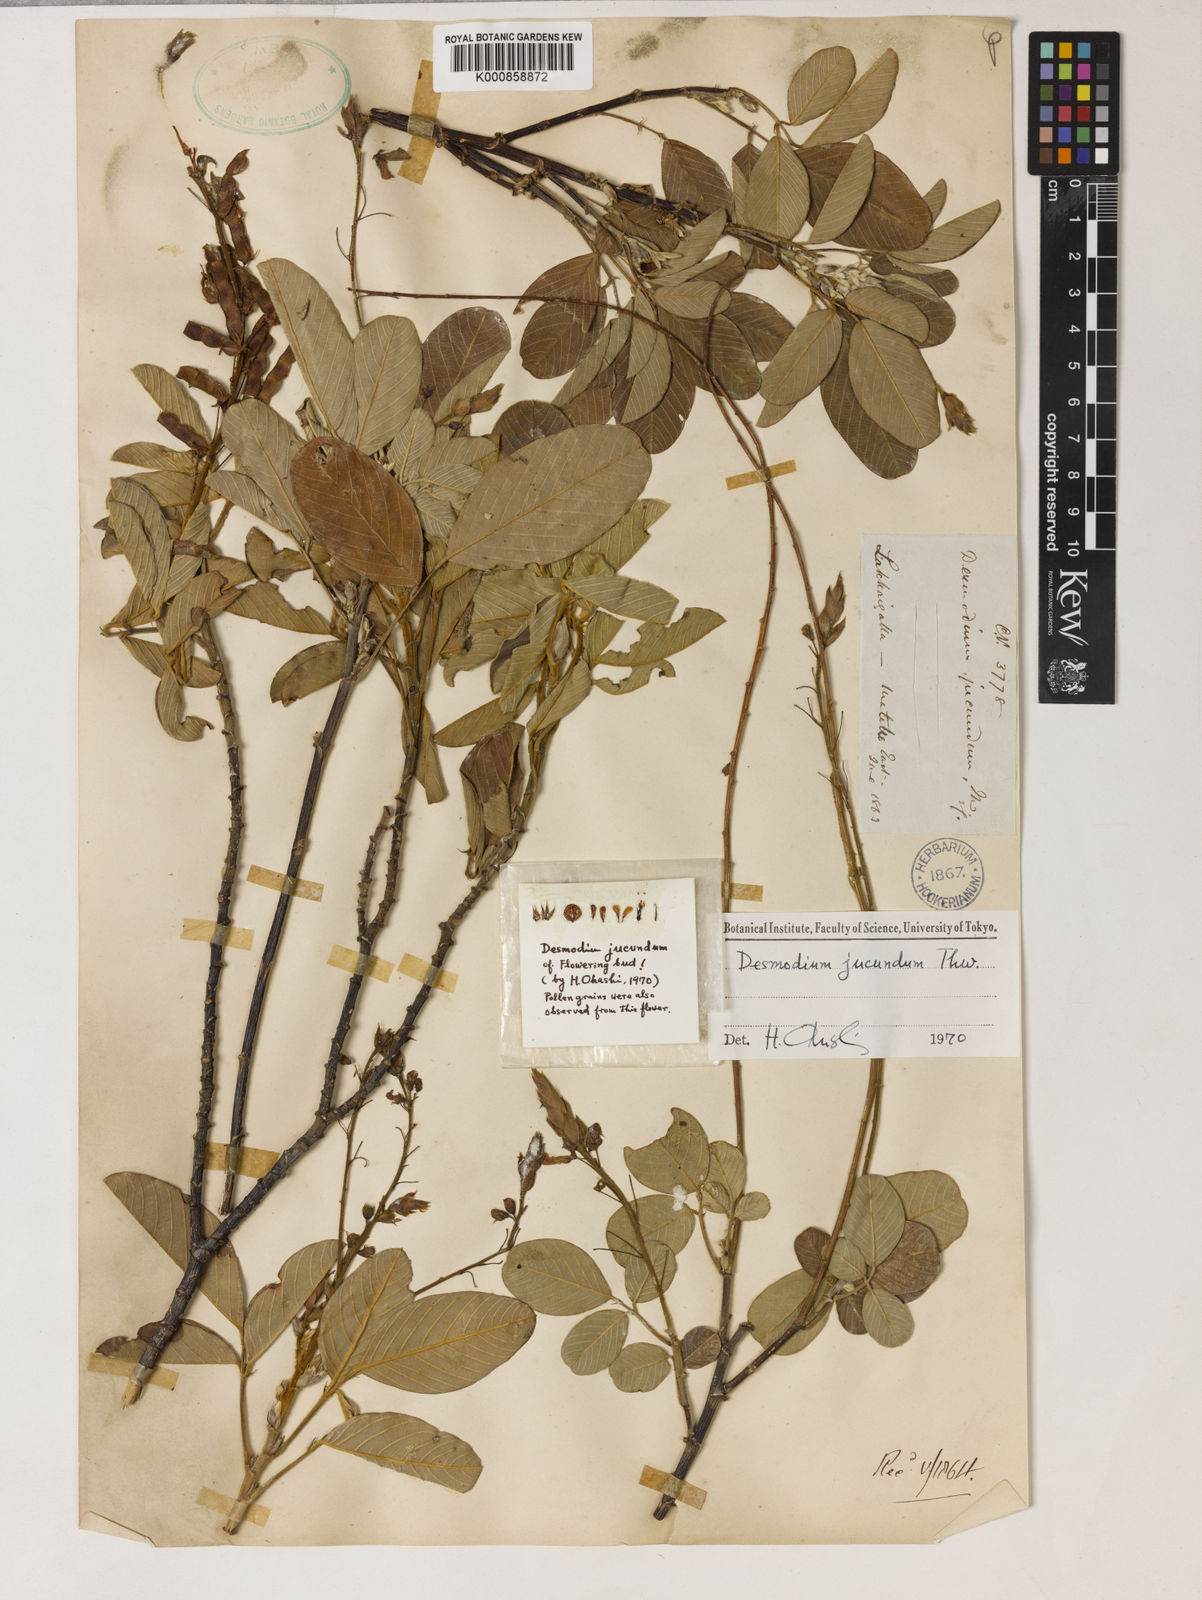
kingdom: Plantae
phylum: Tracheophyta
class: Magnoliopsida
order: Fabales
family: Fabaceae
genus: Grona
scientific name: Grona jucunda
